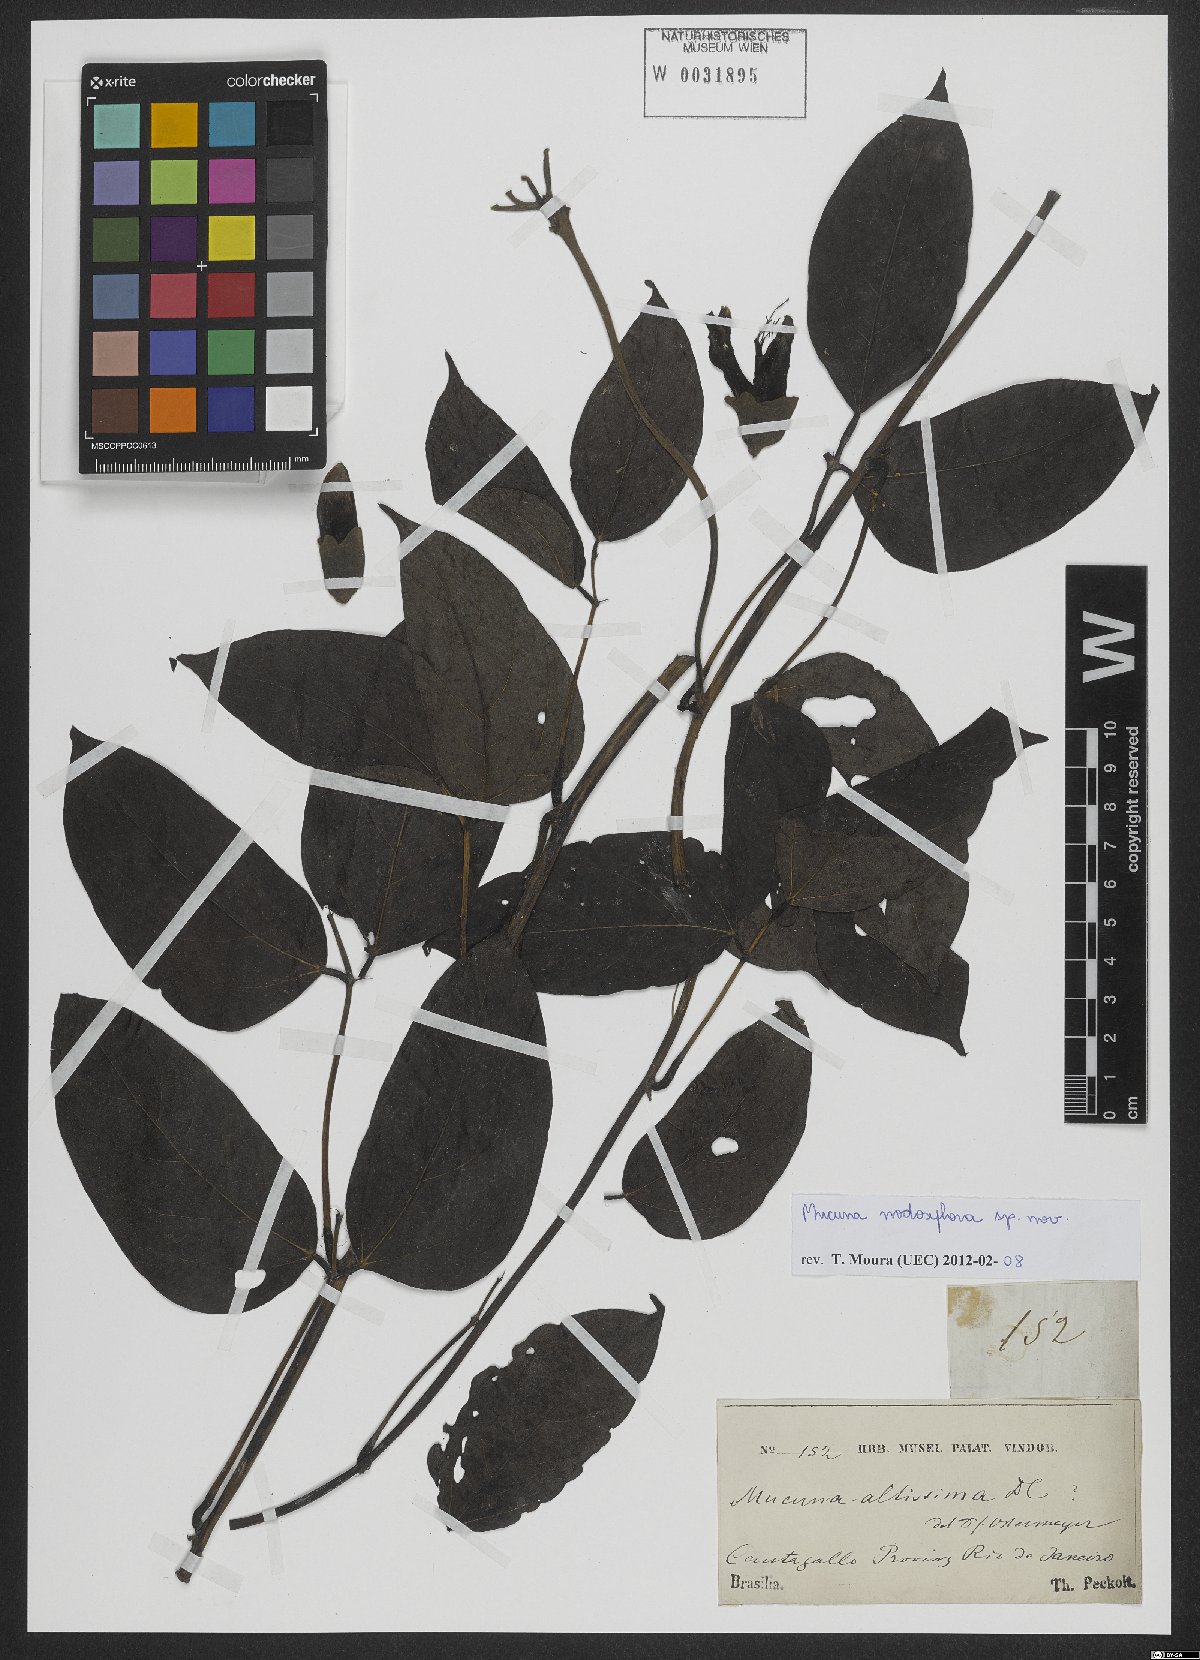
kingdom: Plantae
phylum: Tracheophyta
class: Magnoliopsida
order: Fabales
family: Fabaceae
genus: Mucuna
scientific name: Mucuna urens
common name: Red hamburger bean
